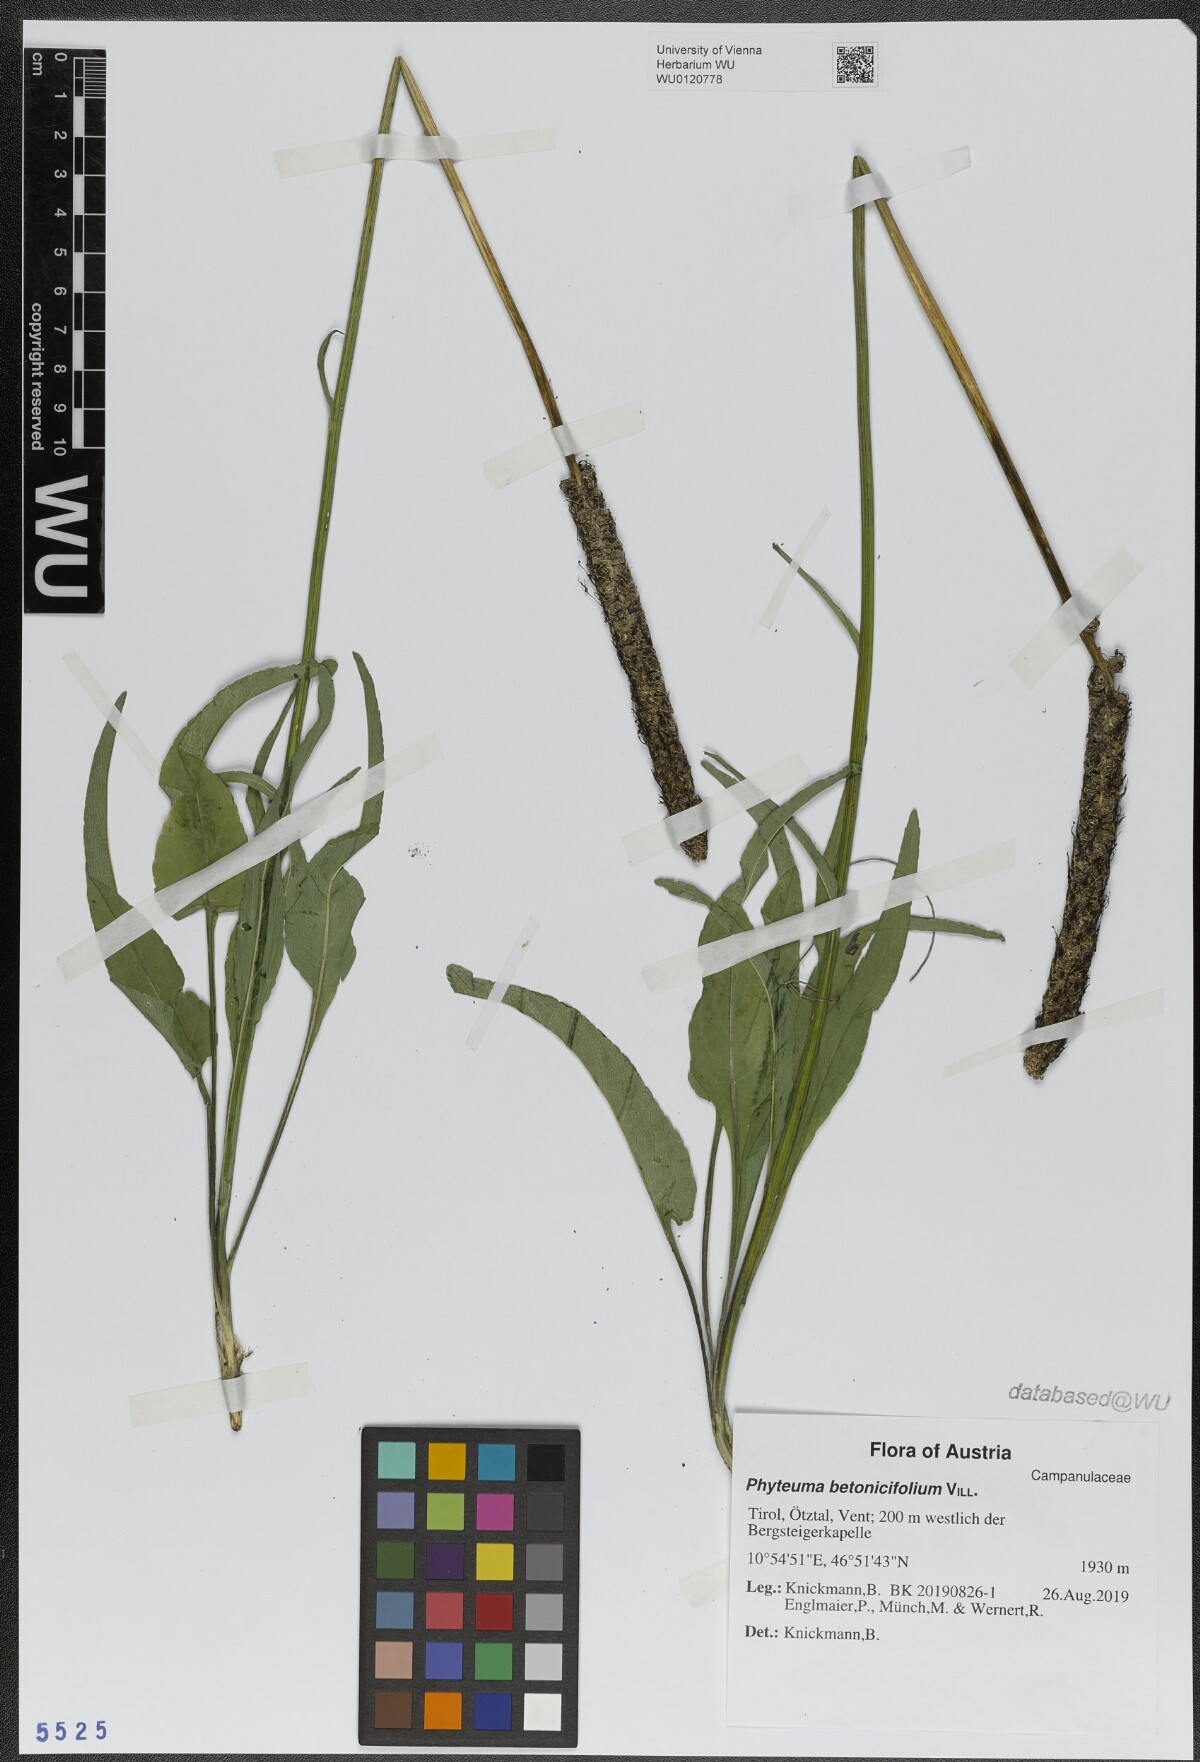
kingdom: Plantae
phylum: Tracheophyta
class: Magnoliopsida
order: Asterales
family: Campanulaceae
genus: Phyteuma
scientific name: Phyteuma betonicifolium
